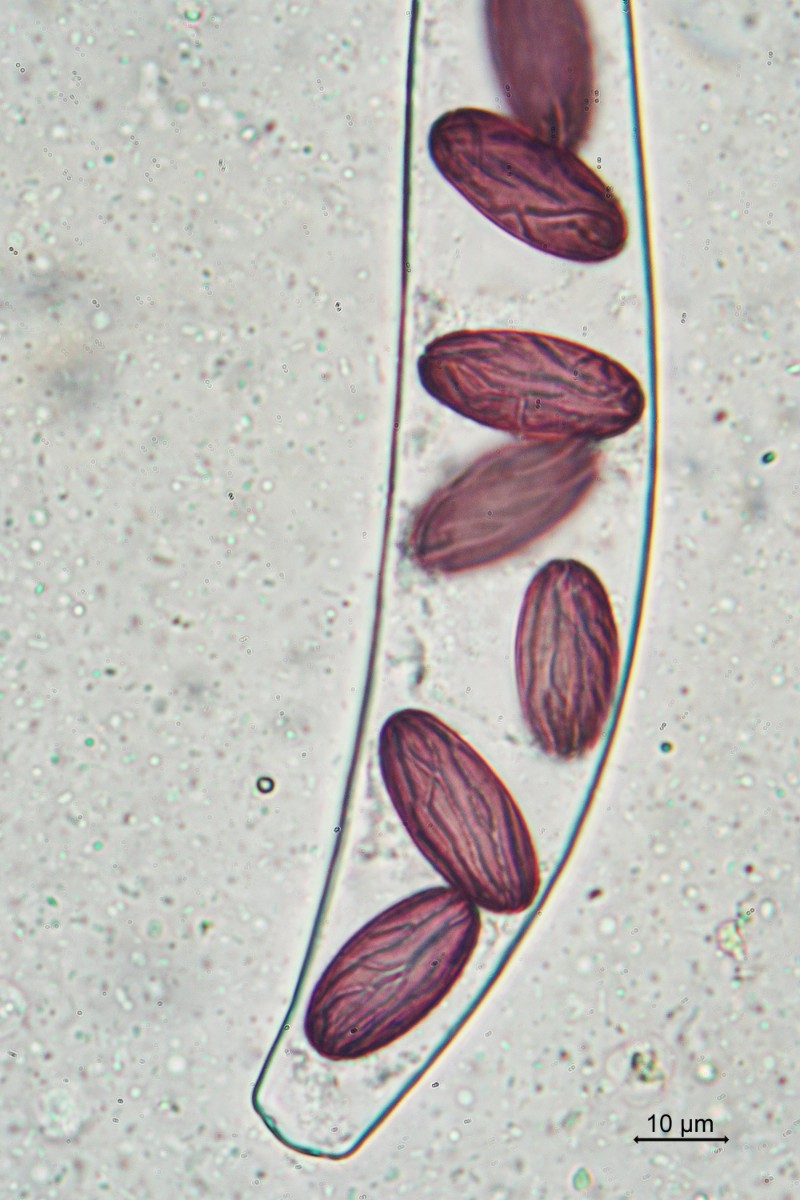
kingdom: Fungi
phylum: Ascomycota
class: Pezizomycetes
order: Pezizales
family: Ascobolaceae
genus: Ascobolus
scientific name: Ascobolus furfuraceus
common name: almindelig prikbæger
